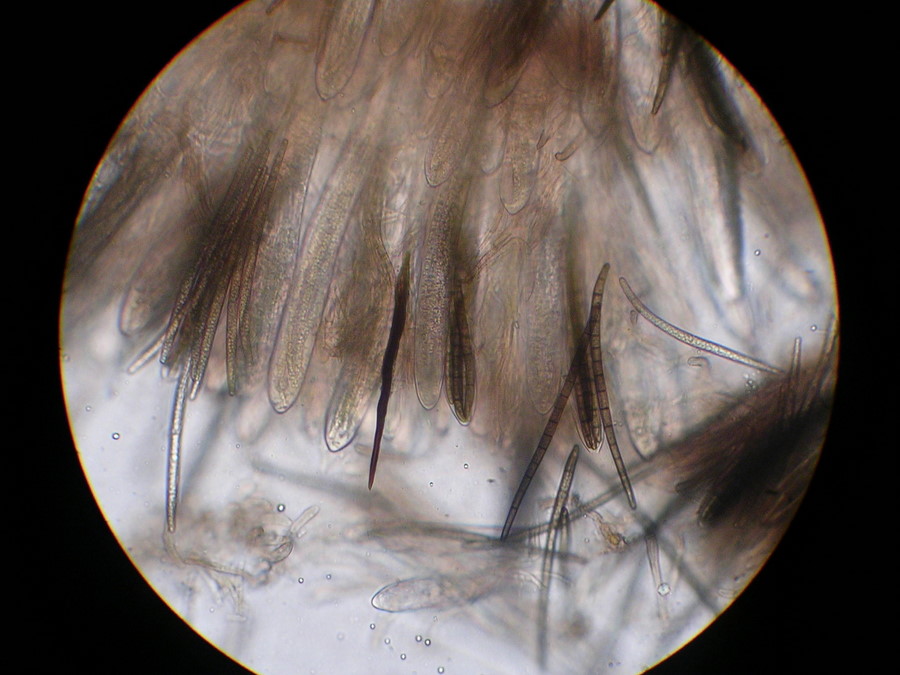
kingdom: Fungi
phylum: Ascomycota
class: Geoglossomycetes
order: Geoglossales
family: Geoglossaceae
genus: Trichoglossum
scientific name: Trichoglossum hirsutum
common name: håret jordtunge
